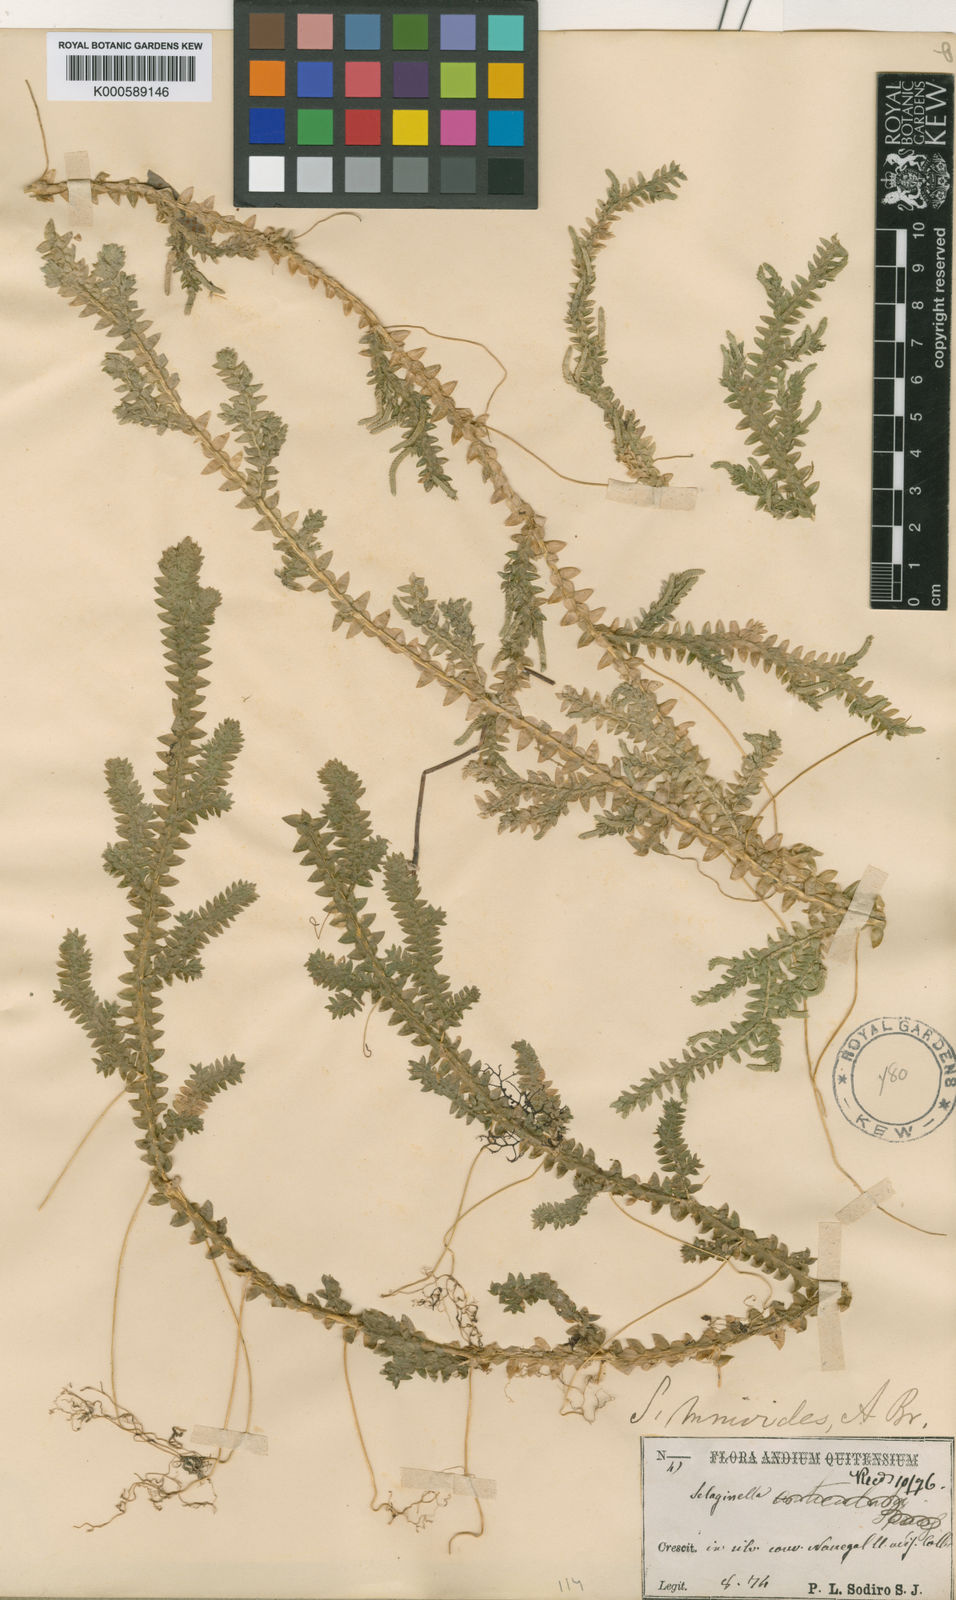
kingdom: Plantae
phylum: Tracheophyta
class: Lycopodiopsida
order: Selaginellales
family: Selaginellaceae
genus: Selaginella
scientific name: Selaginella diffusa
